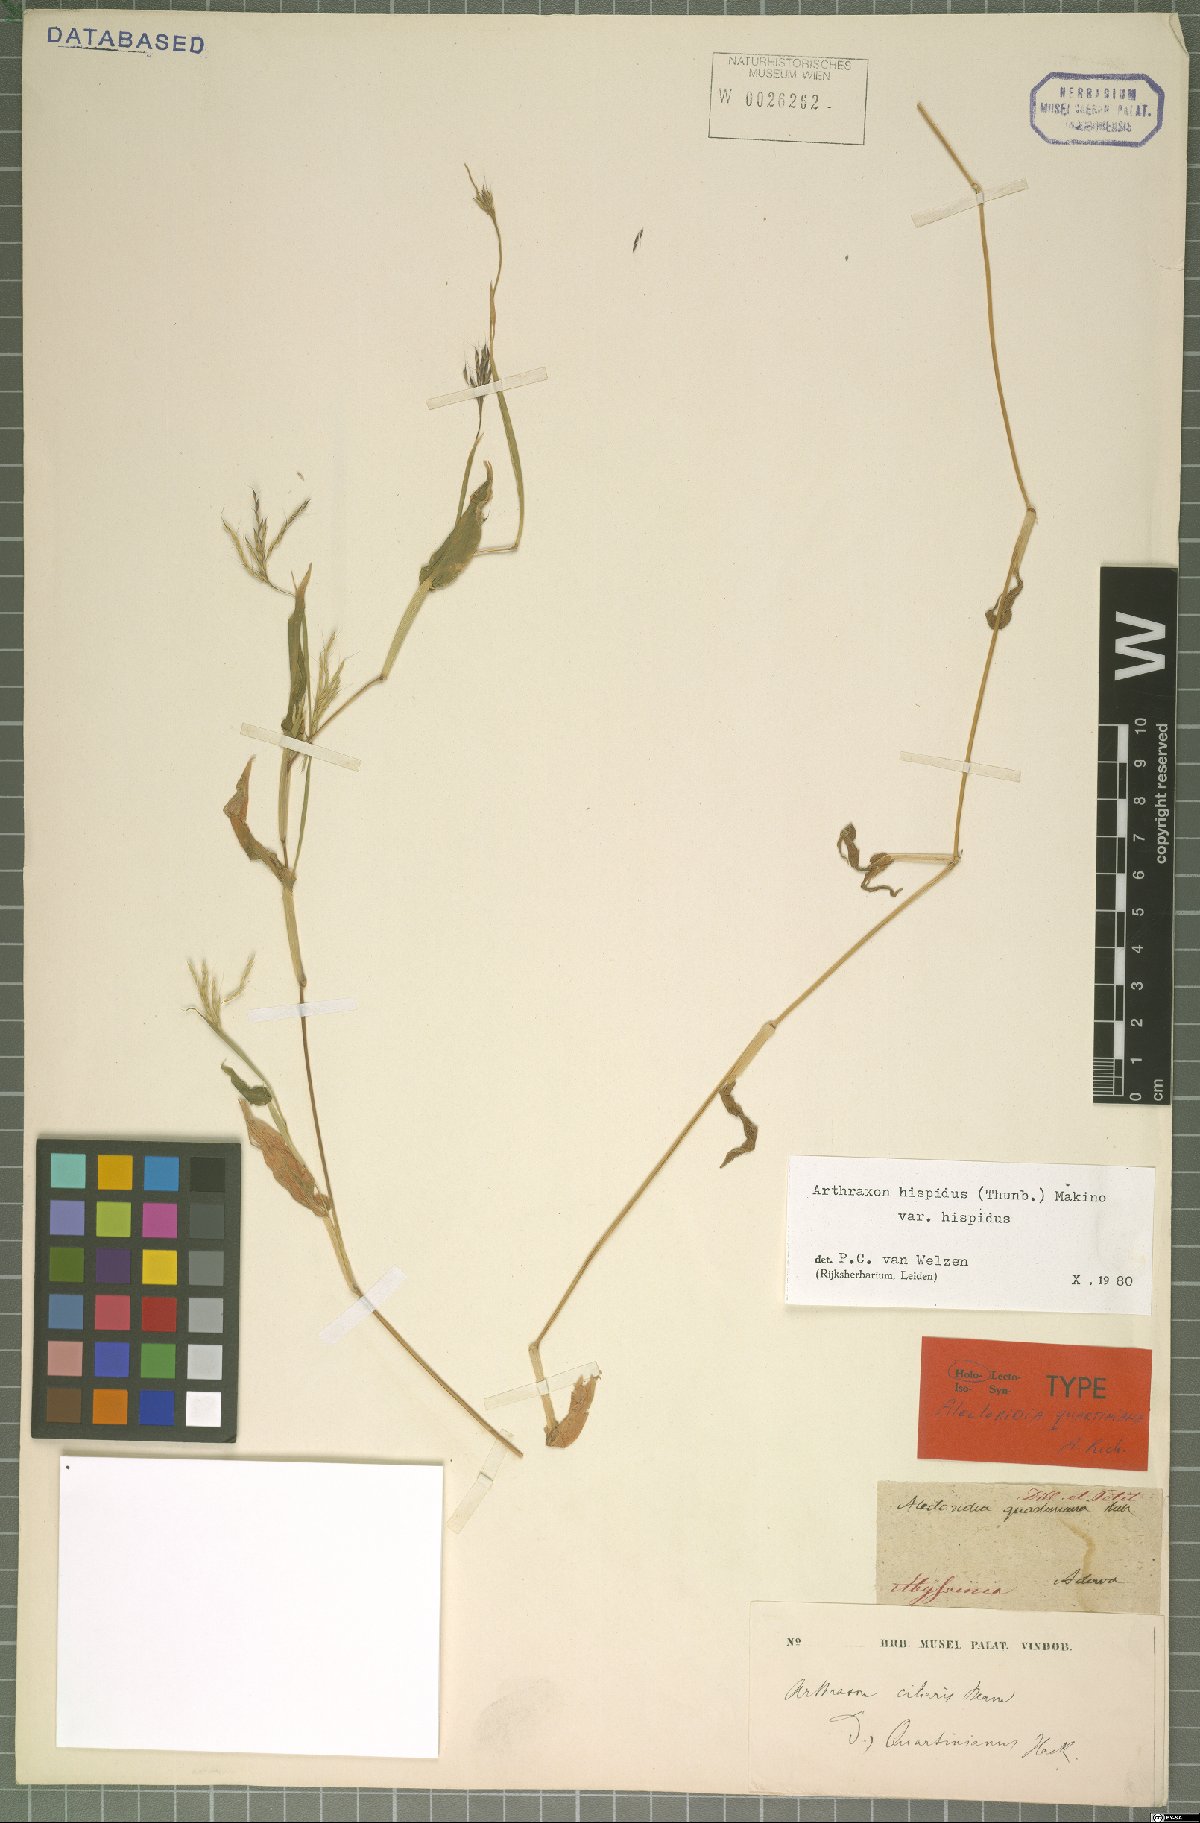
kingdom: Plantae
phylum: Tracheophyta
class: Liliopsida
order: Poales
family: Poaceae
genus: Arthraxon
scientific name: Arthraxon hispidus
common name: Small carpgrass
